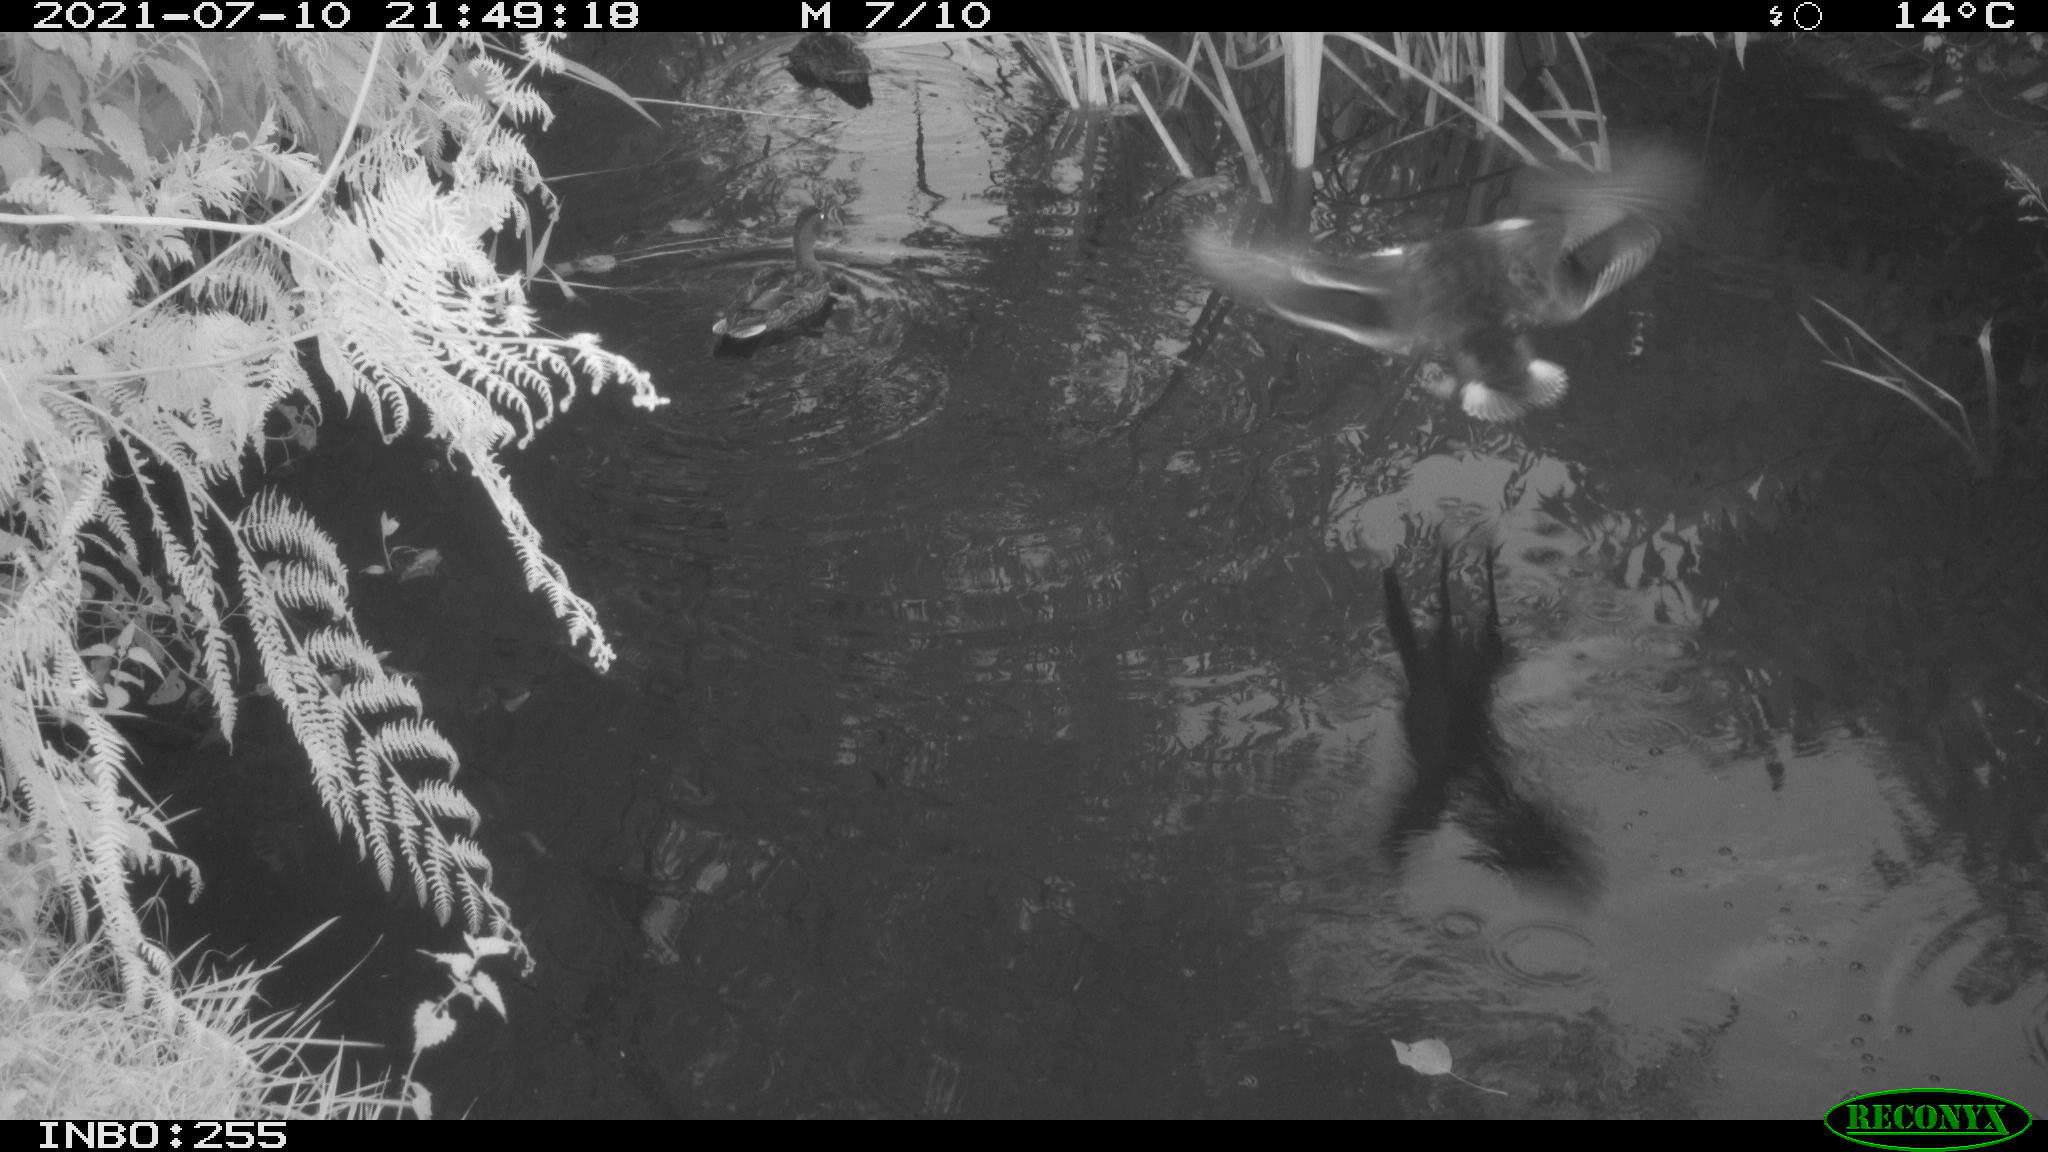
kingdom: Animalia
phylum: Chordata
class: Aves
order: Anseriformes
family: Anatidae
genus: Anas
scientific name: Anas platyrhynchos
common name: Mallard
